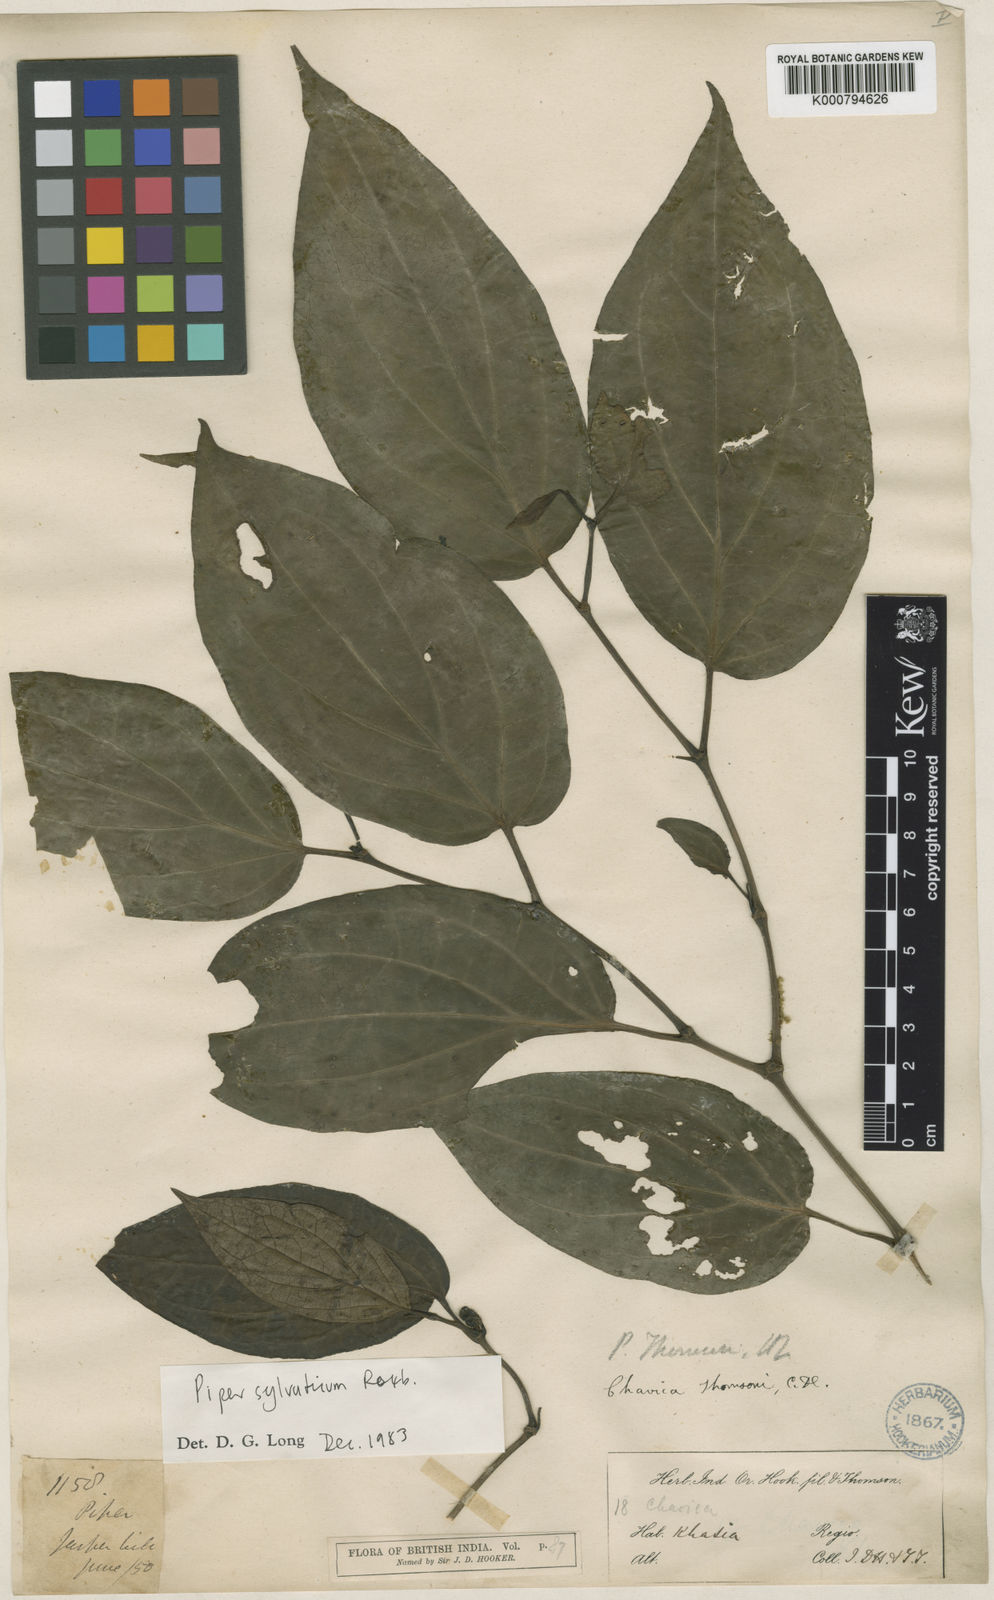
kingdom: Plantae
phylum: Tracheophyta
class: Magnoliopsida
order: Piperales
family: Piperaceae
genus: Piper
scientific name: Piper thomsonii
